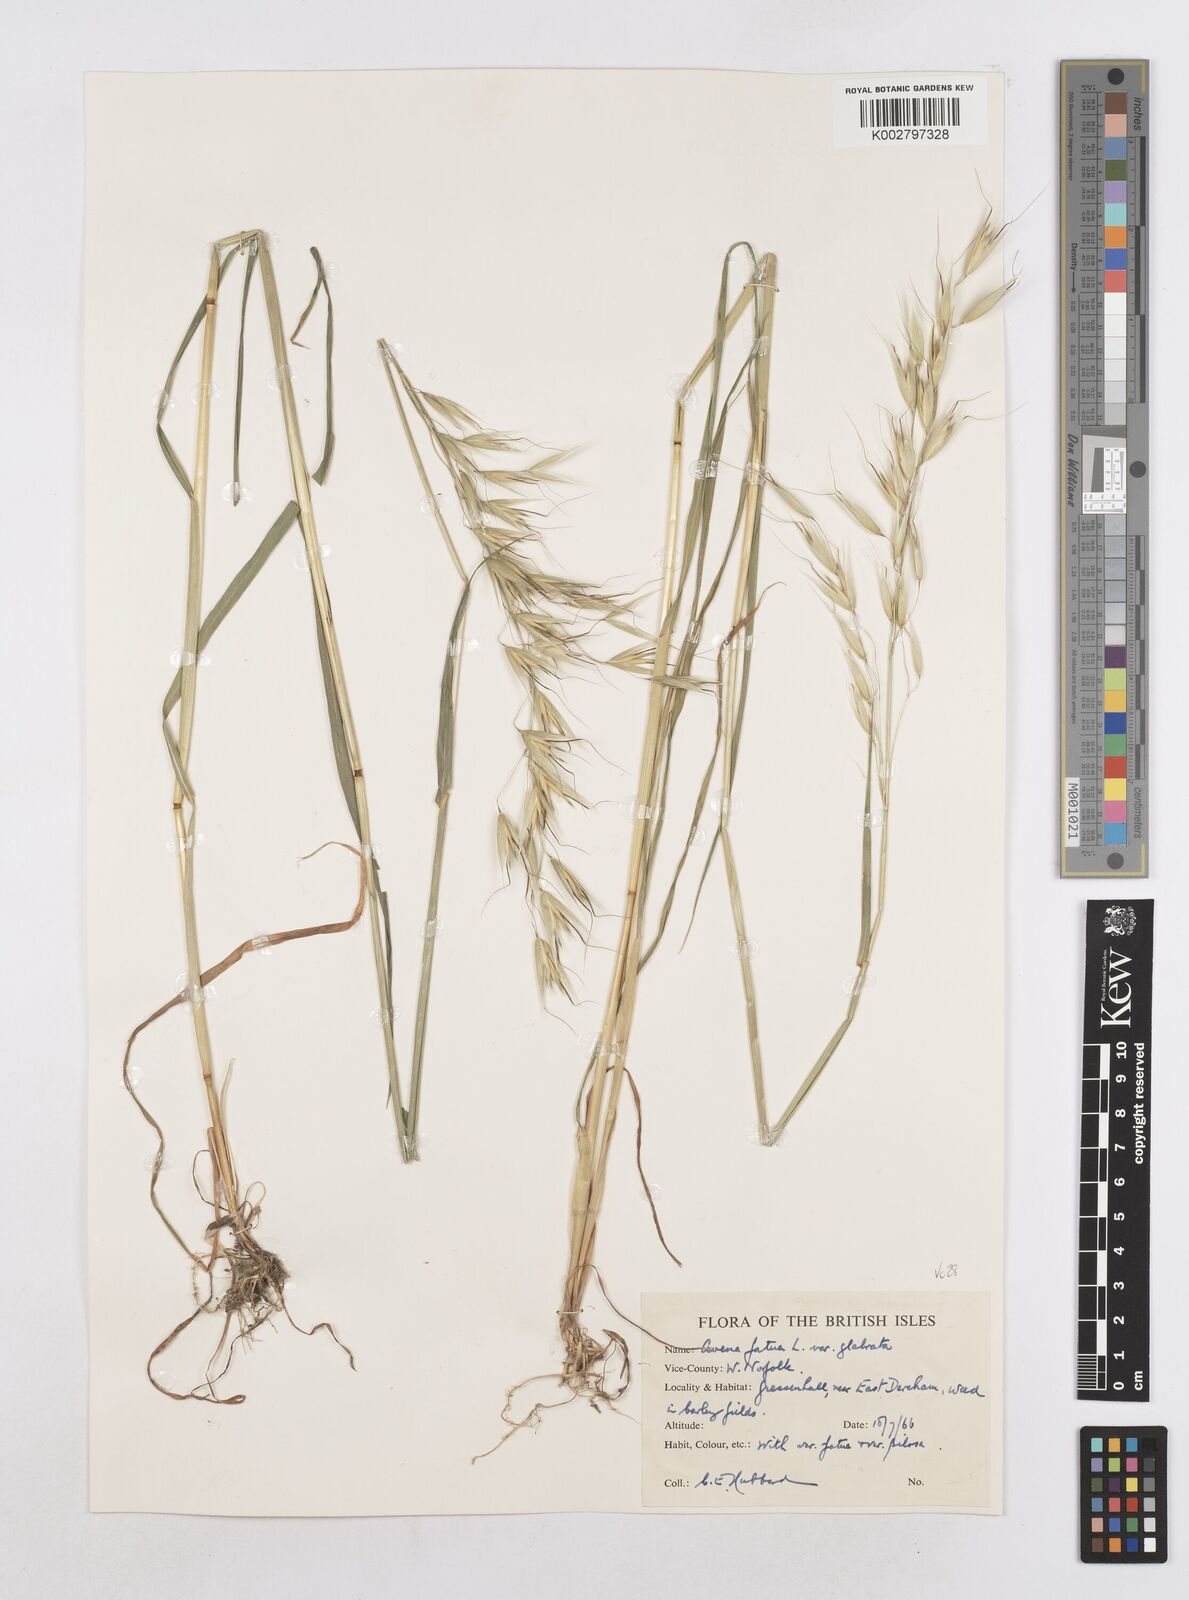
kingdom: Plantae
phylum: Tracheophyta
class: Liliopsida
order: Poales
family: Poaceae
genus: Avena
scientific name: Avena fatua
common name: Wild oat
